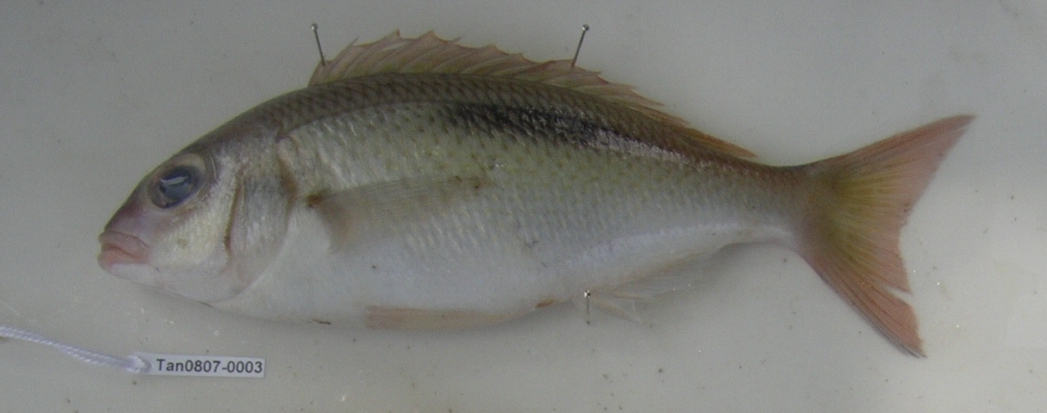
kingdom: Animalia
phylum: Chordata
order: Perciformes
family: Nemipteridae
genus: Scolopsis
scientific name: Scolopsis bimaculata
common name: Thumbprint monocle bream
